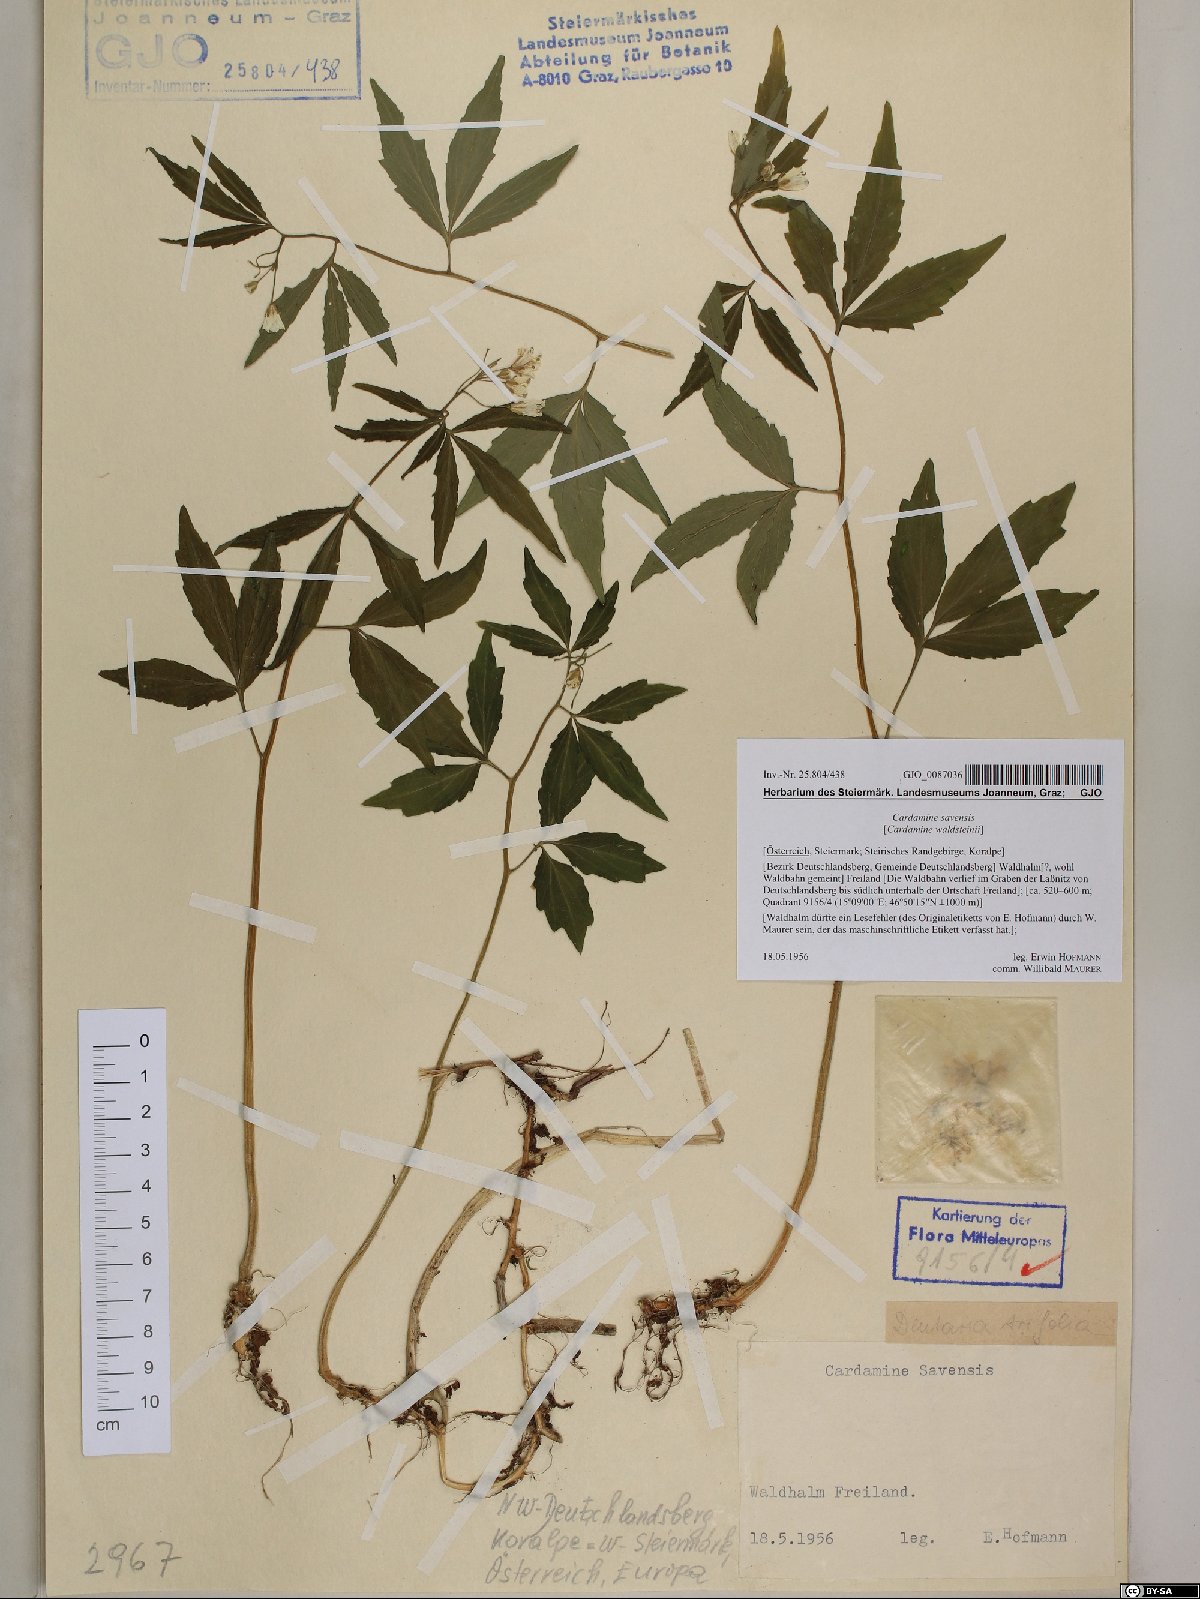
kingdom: Plantae
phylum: Tracheophyta
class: Magnoliopsida
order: Brassicales
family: Brassicaceae
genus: Cardamine
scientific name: Cardamine waldsteinii
